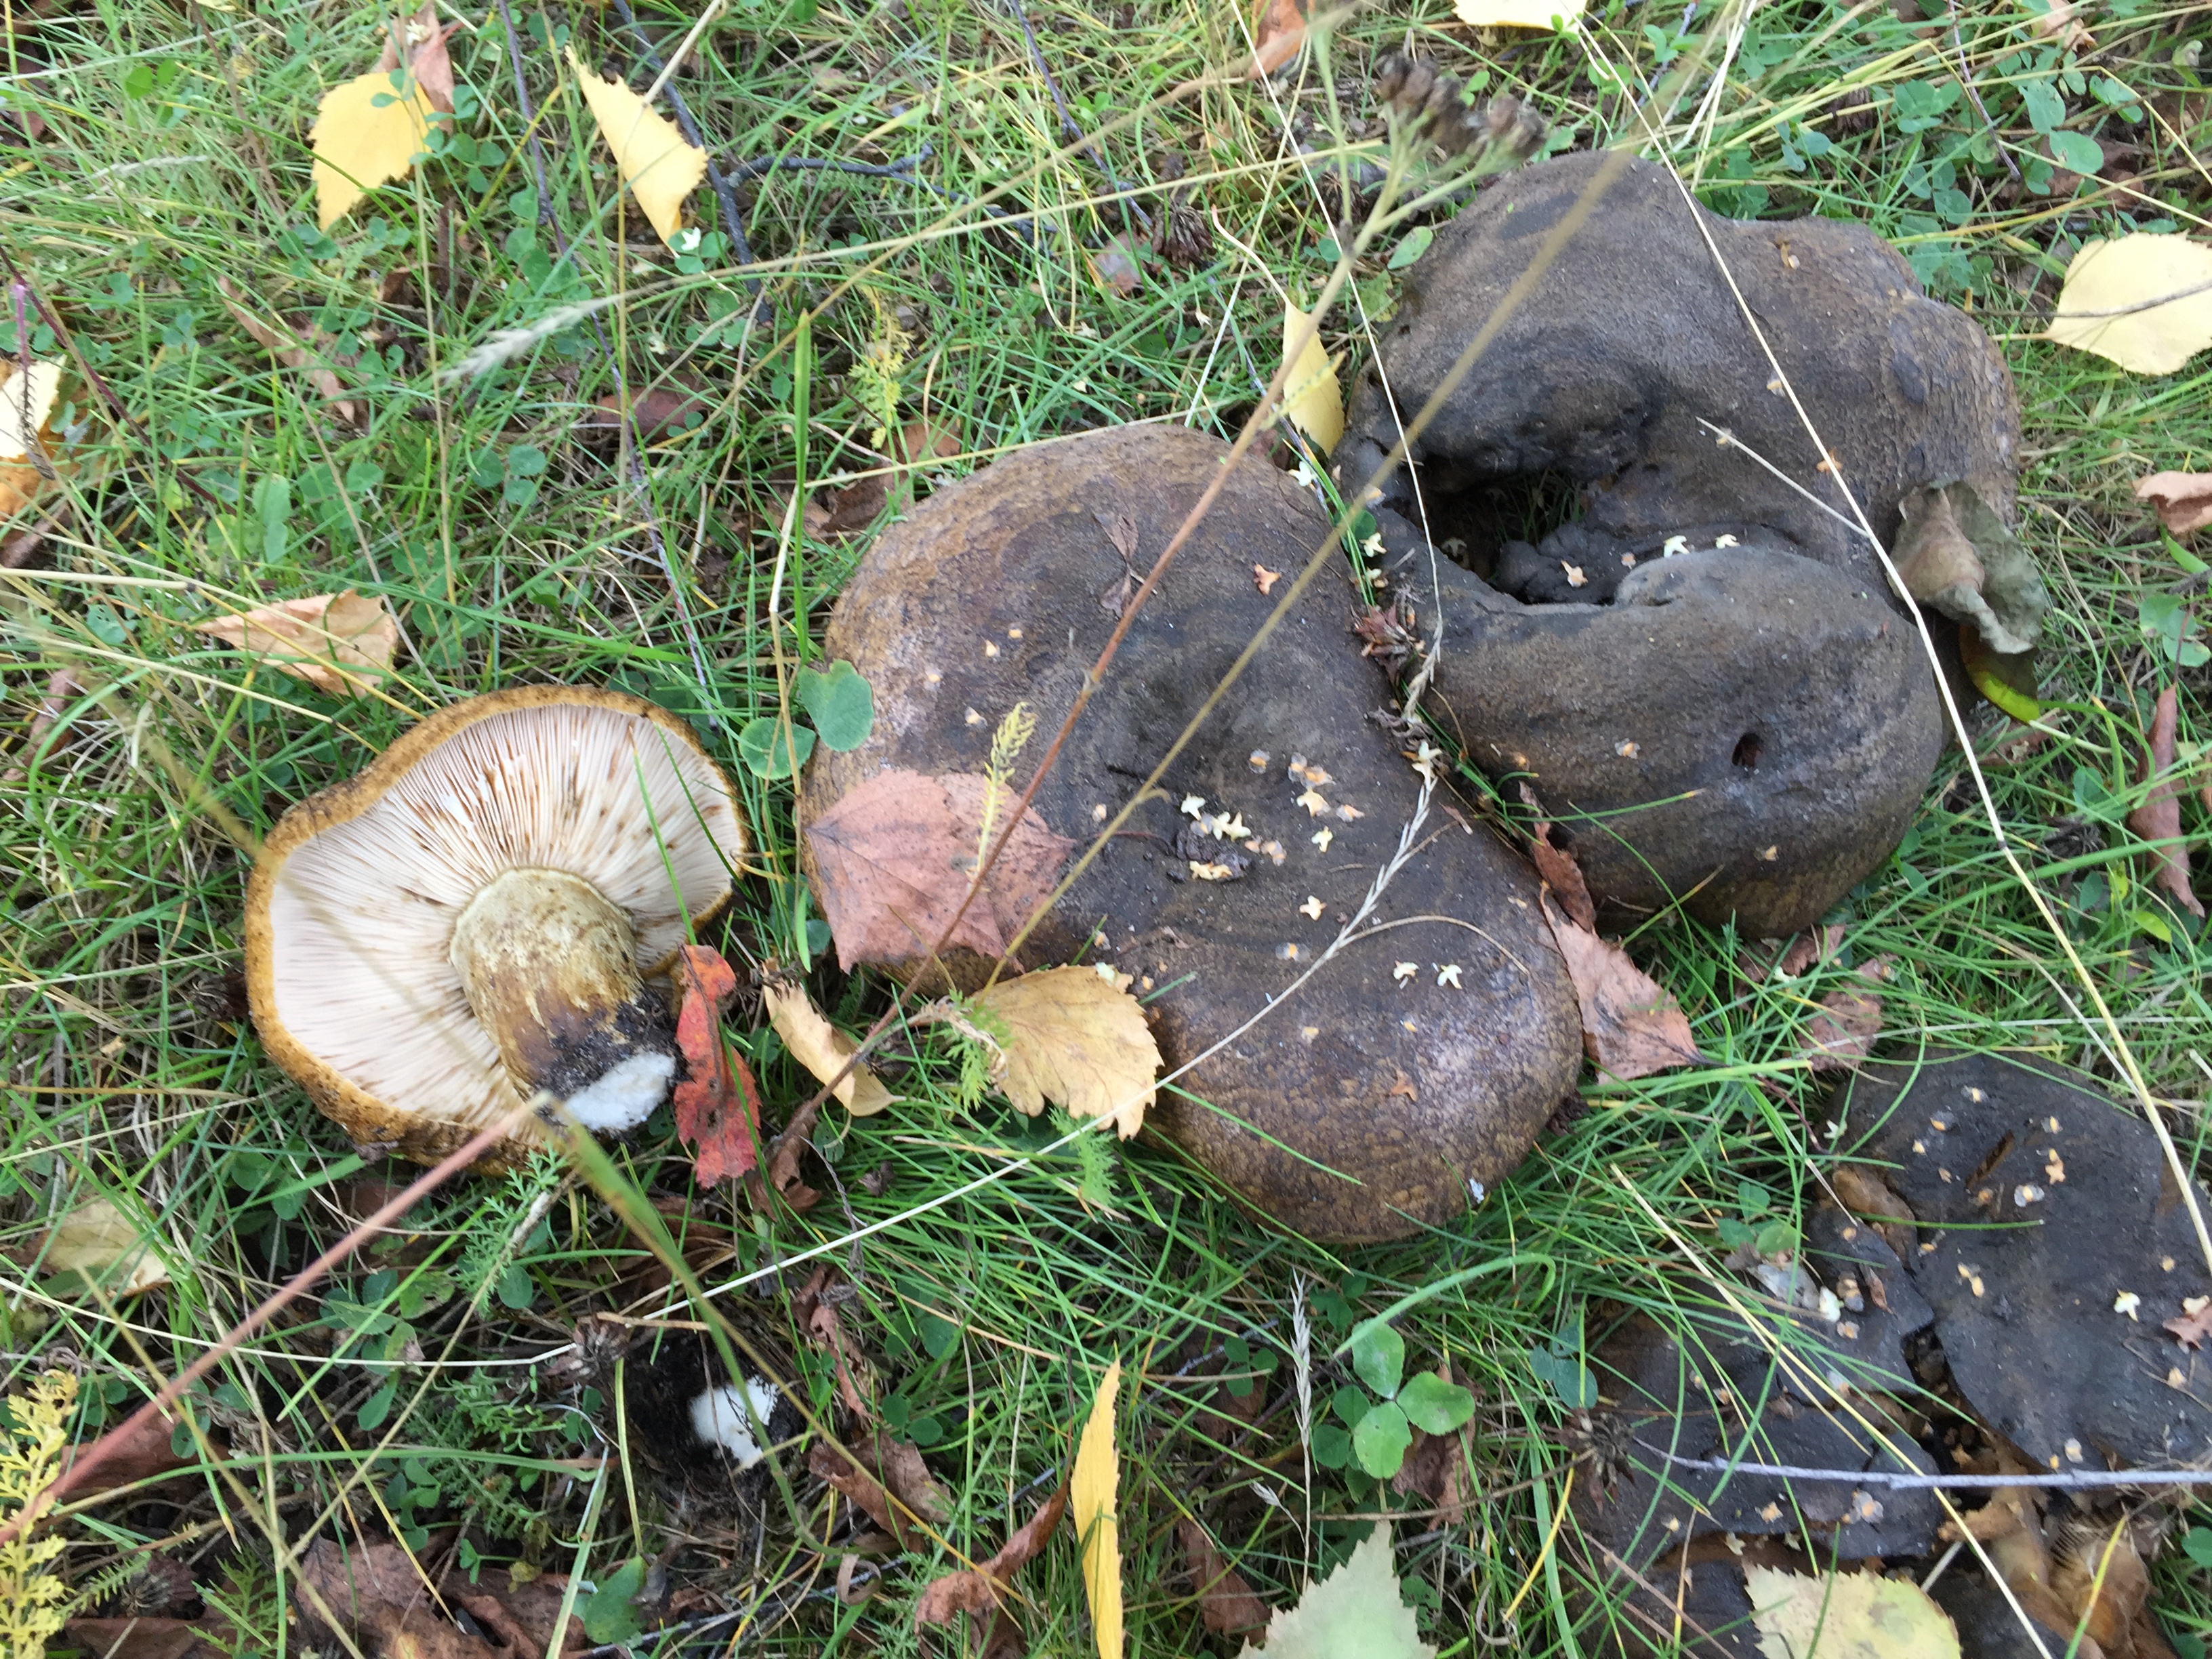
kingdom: Fungi
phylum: Basidiomycota
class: Agaricomycetes
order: Russulales
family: Russulaceae
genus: Lactarius
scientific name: Lactarius turpis
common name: Ugly milk-cap
